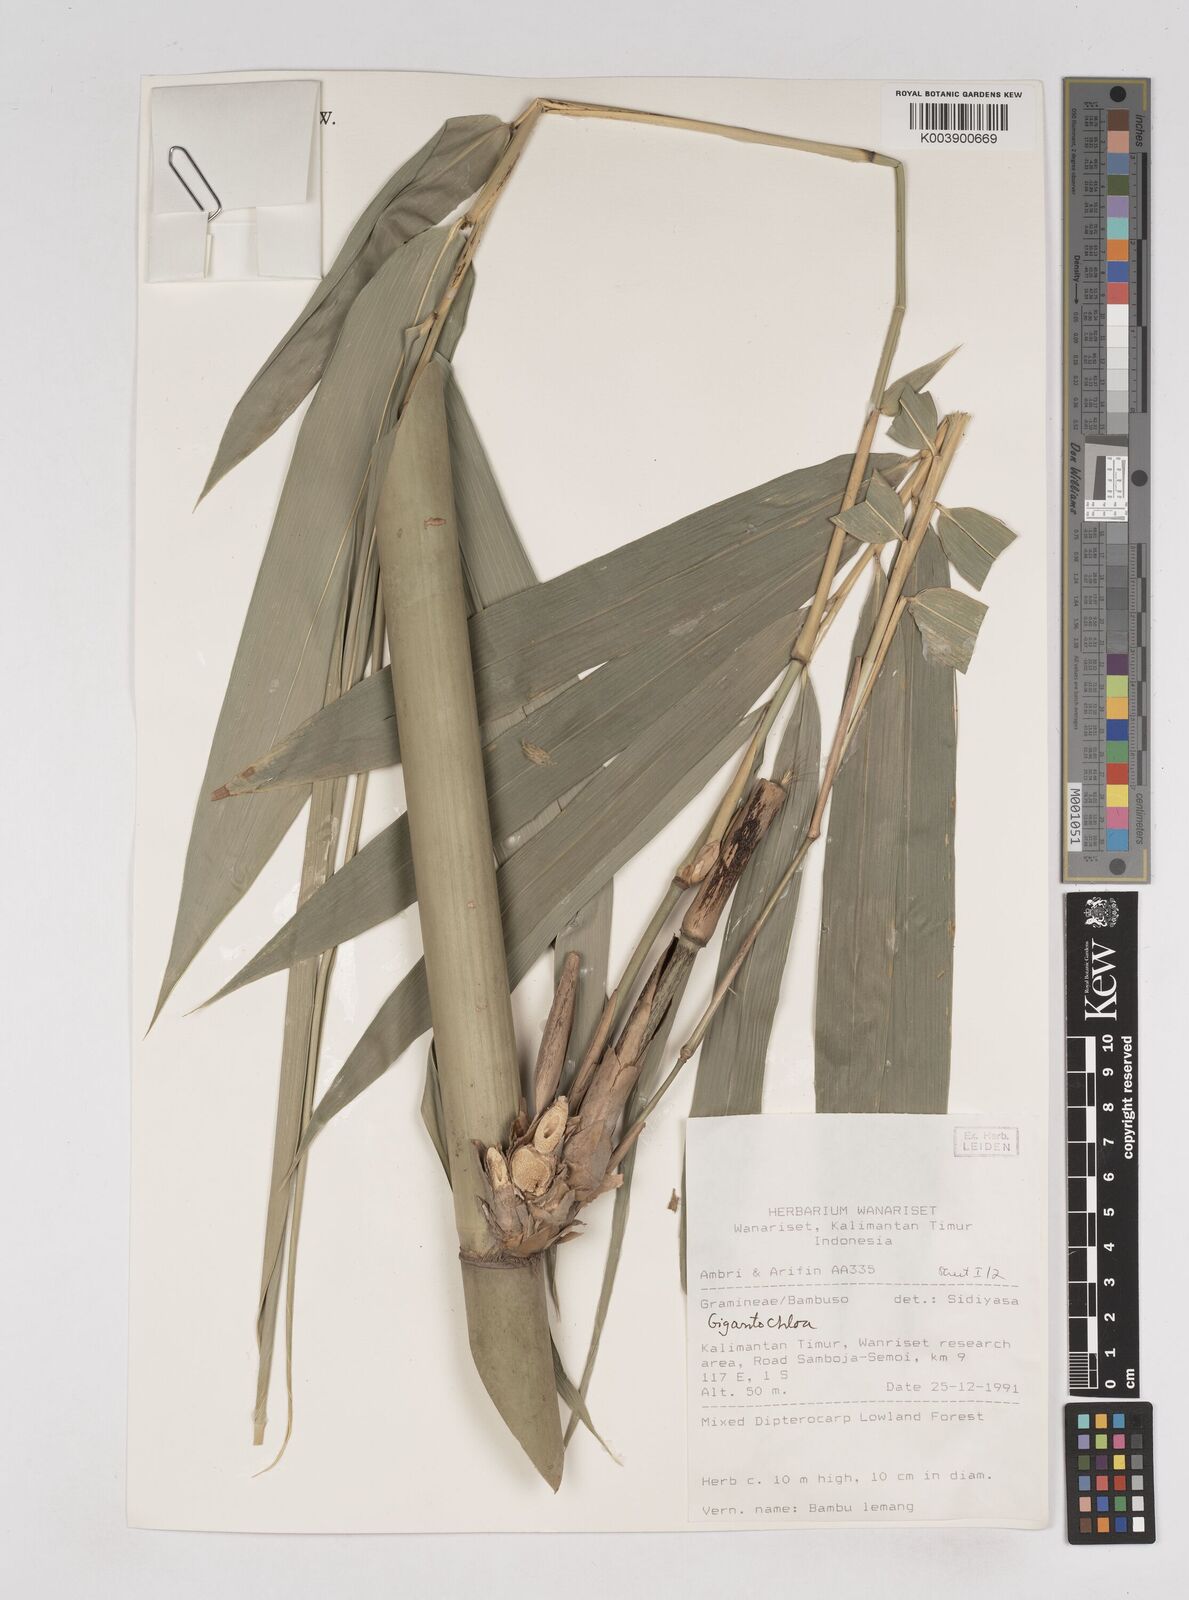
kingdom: Plantae
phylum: Tracheophyta
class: Liliopsida
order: Poales
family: Poaceae
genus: Gigantochloa
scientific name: Gigantochloa
